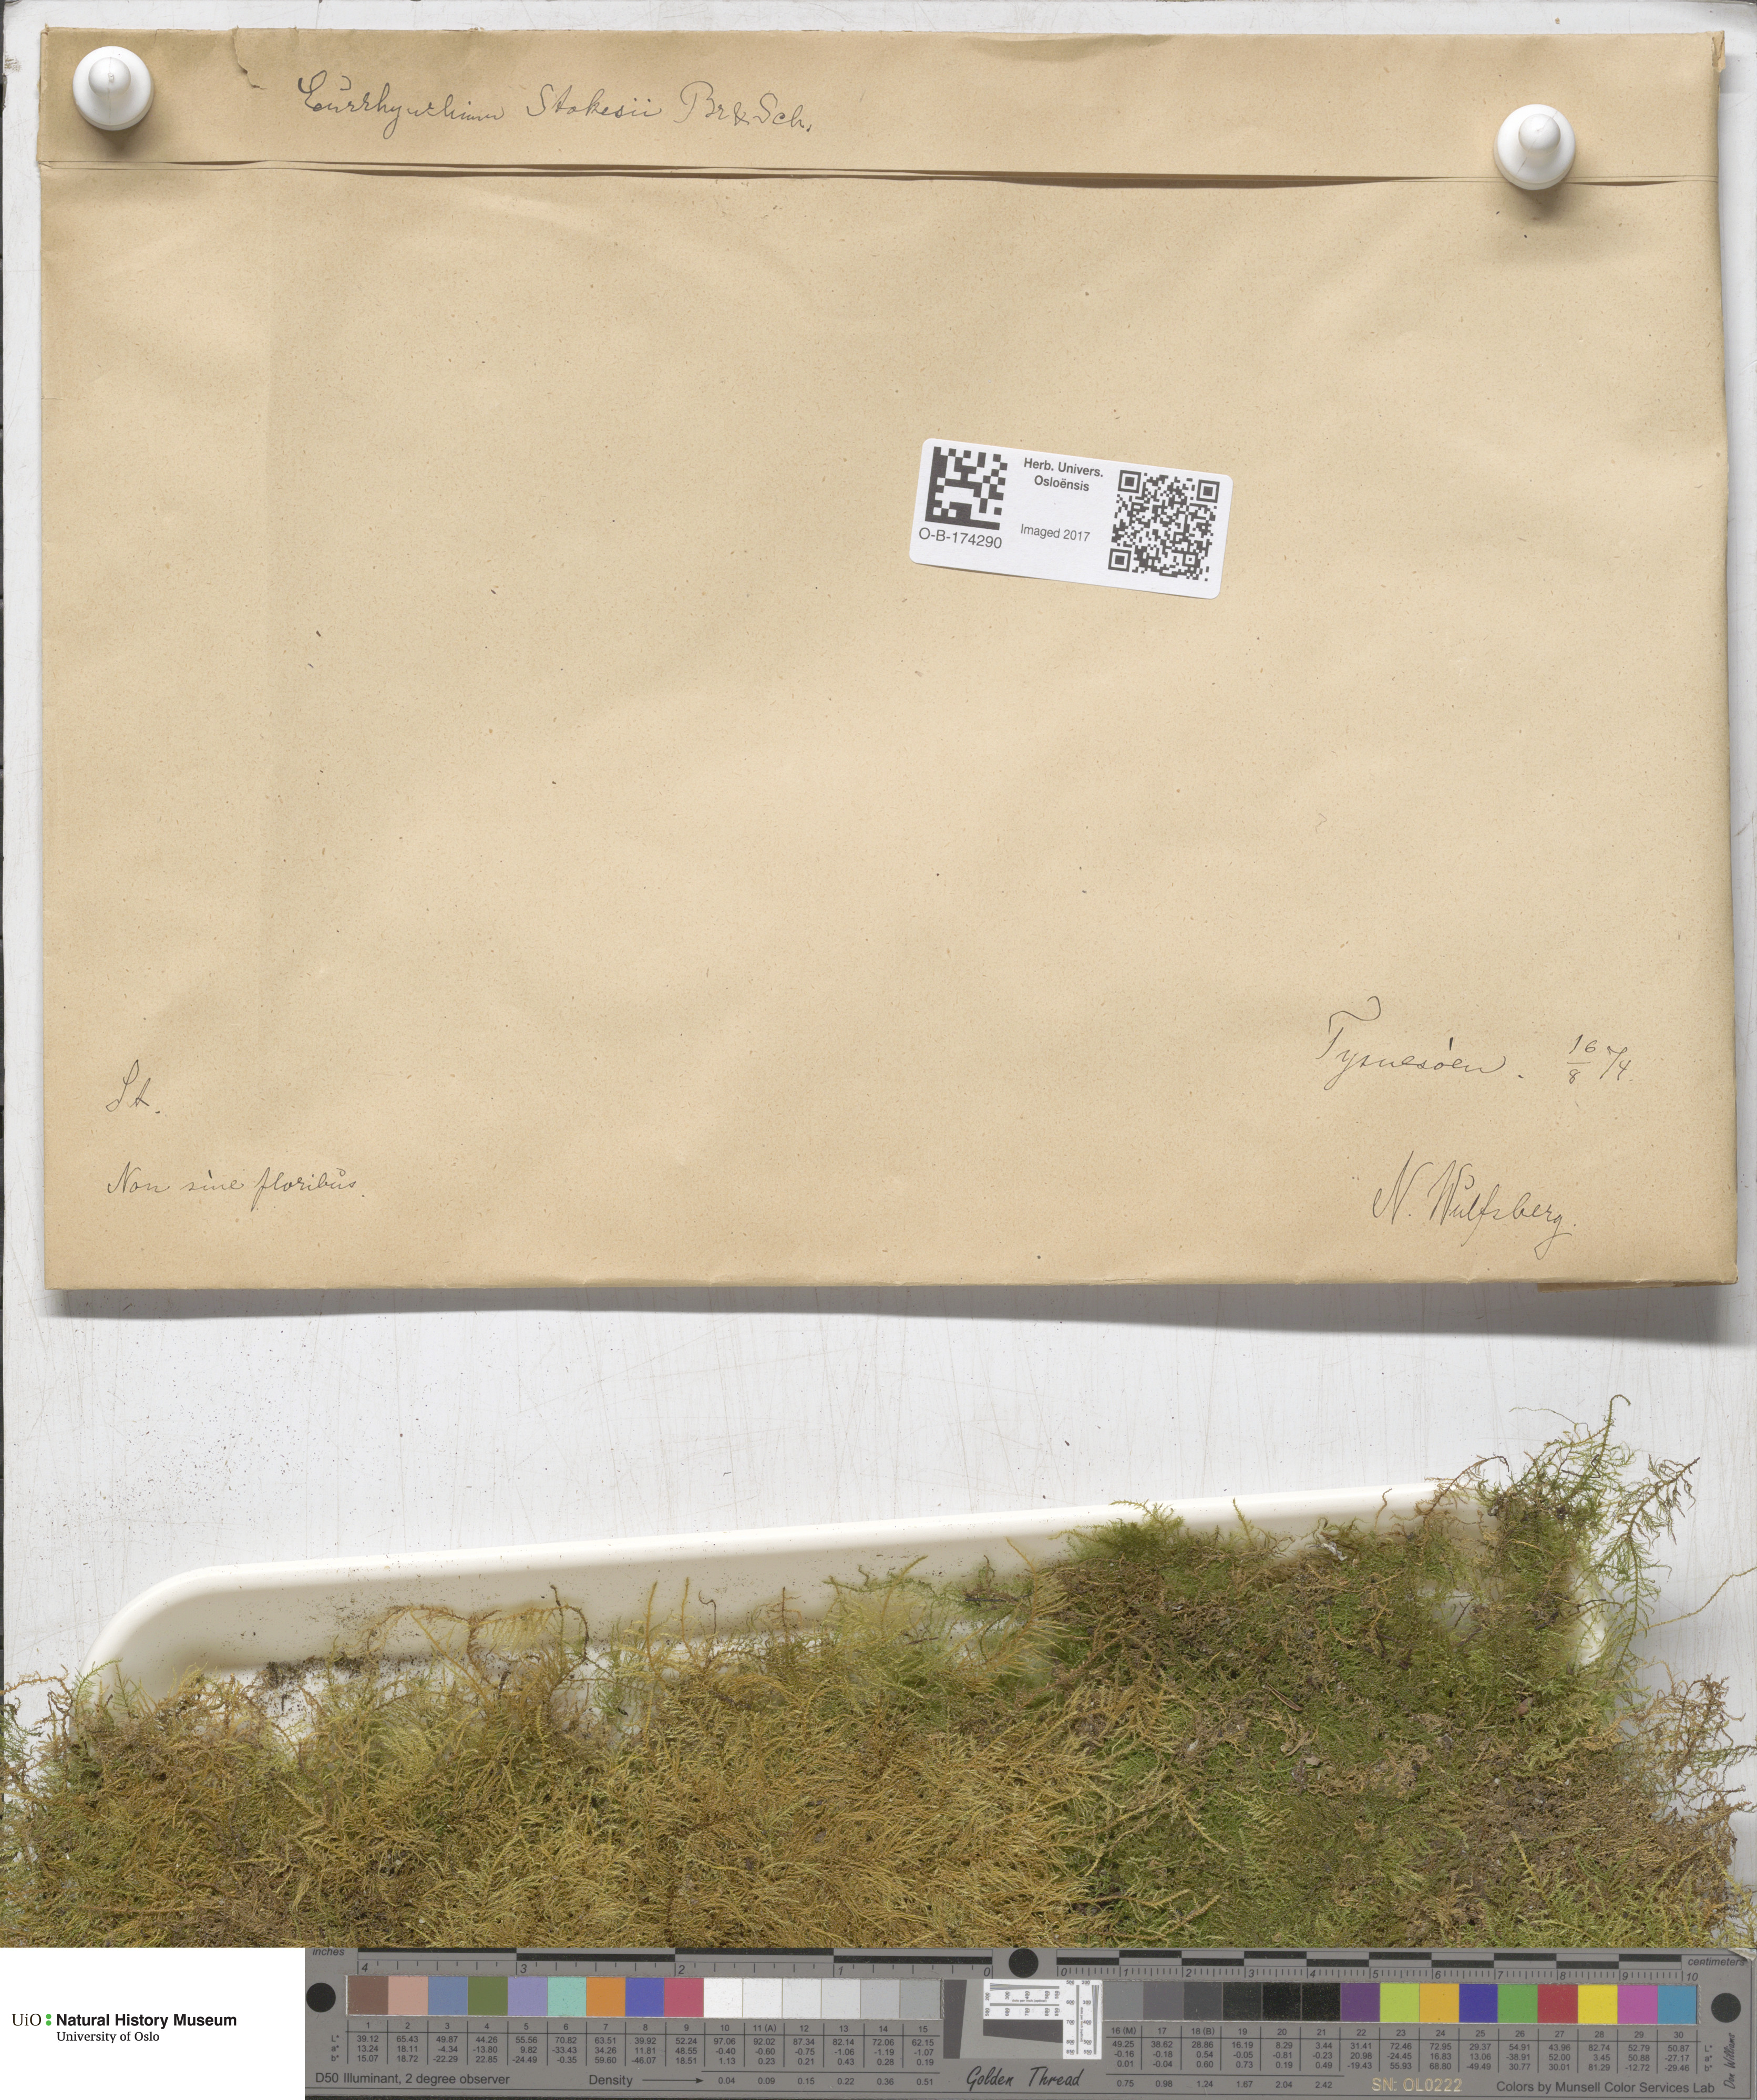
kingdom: Plantae
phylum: Bryophyta
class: Bryopsida
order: Hypnales
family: Brachytheciaceae
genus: Kindbergia
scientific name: Kindbergia praelonga
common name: Slender beaked moss
